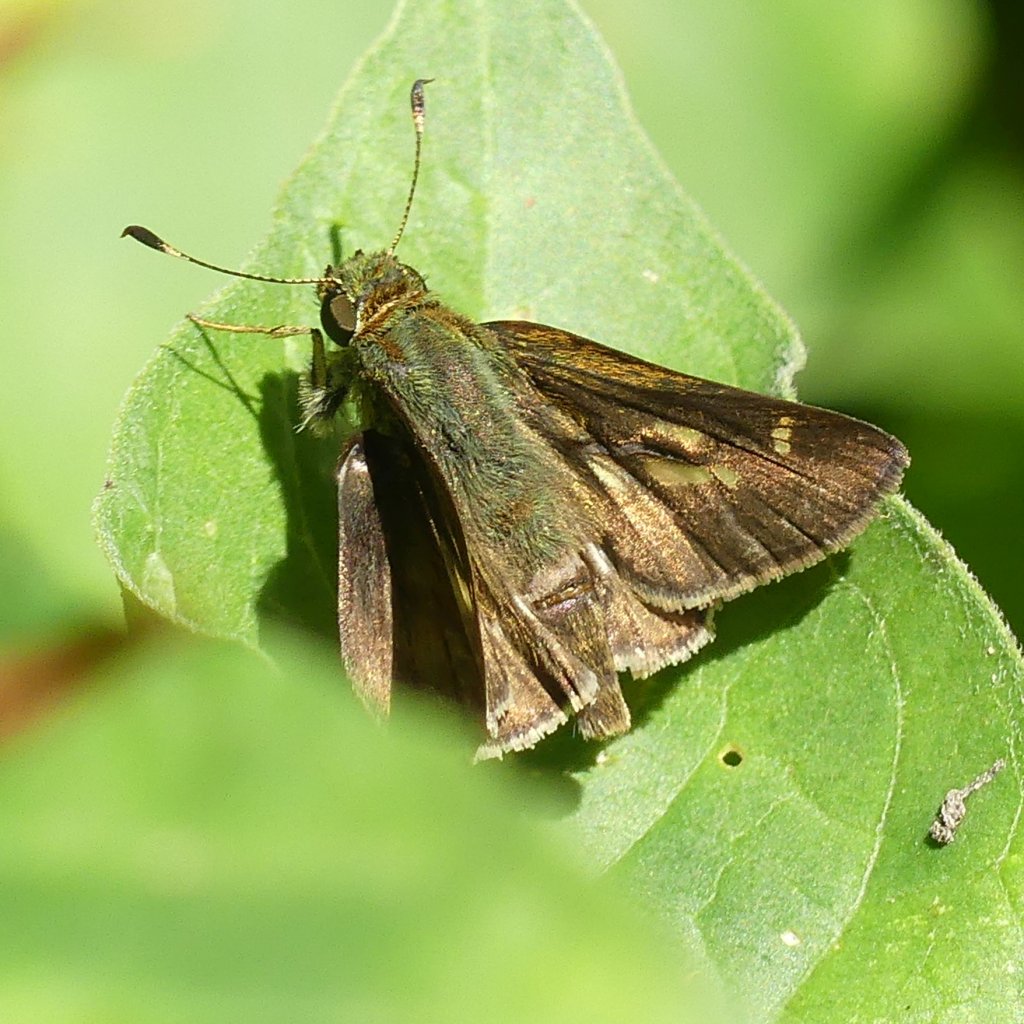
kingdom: Animalia
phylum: Arthropoda
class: Insecta
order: Lepidoptera
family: Hesperiidae
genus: Vernia
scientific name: Vernia verna
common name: Little Glassywing
